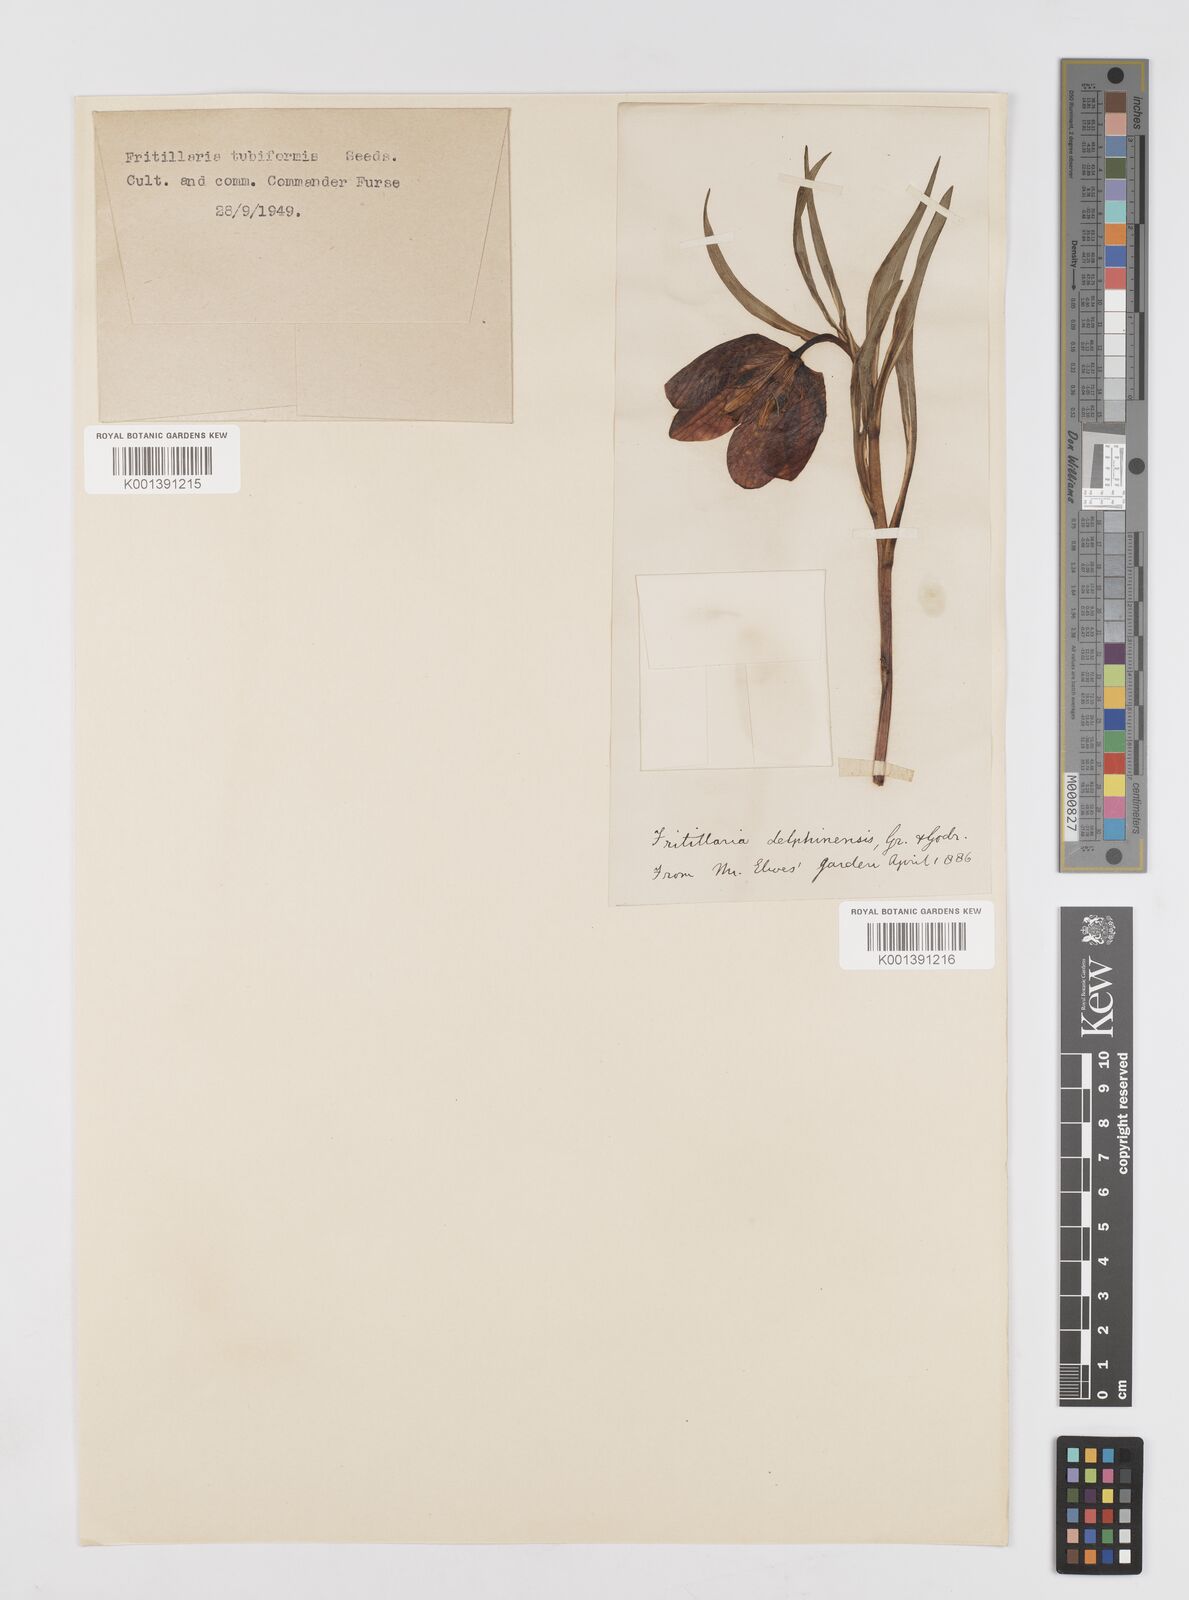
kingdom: Plantae
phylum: Tracheophyta
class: Liliopsida
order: Liliales
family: Liliaceae
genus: Fritillaria
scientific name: Fritillaria tubaeformis
